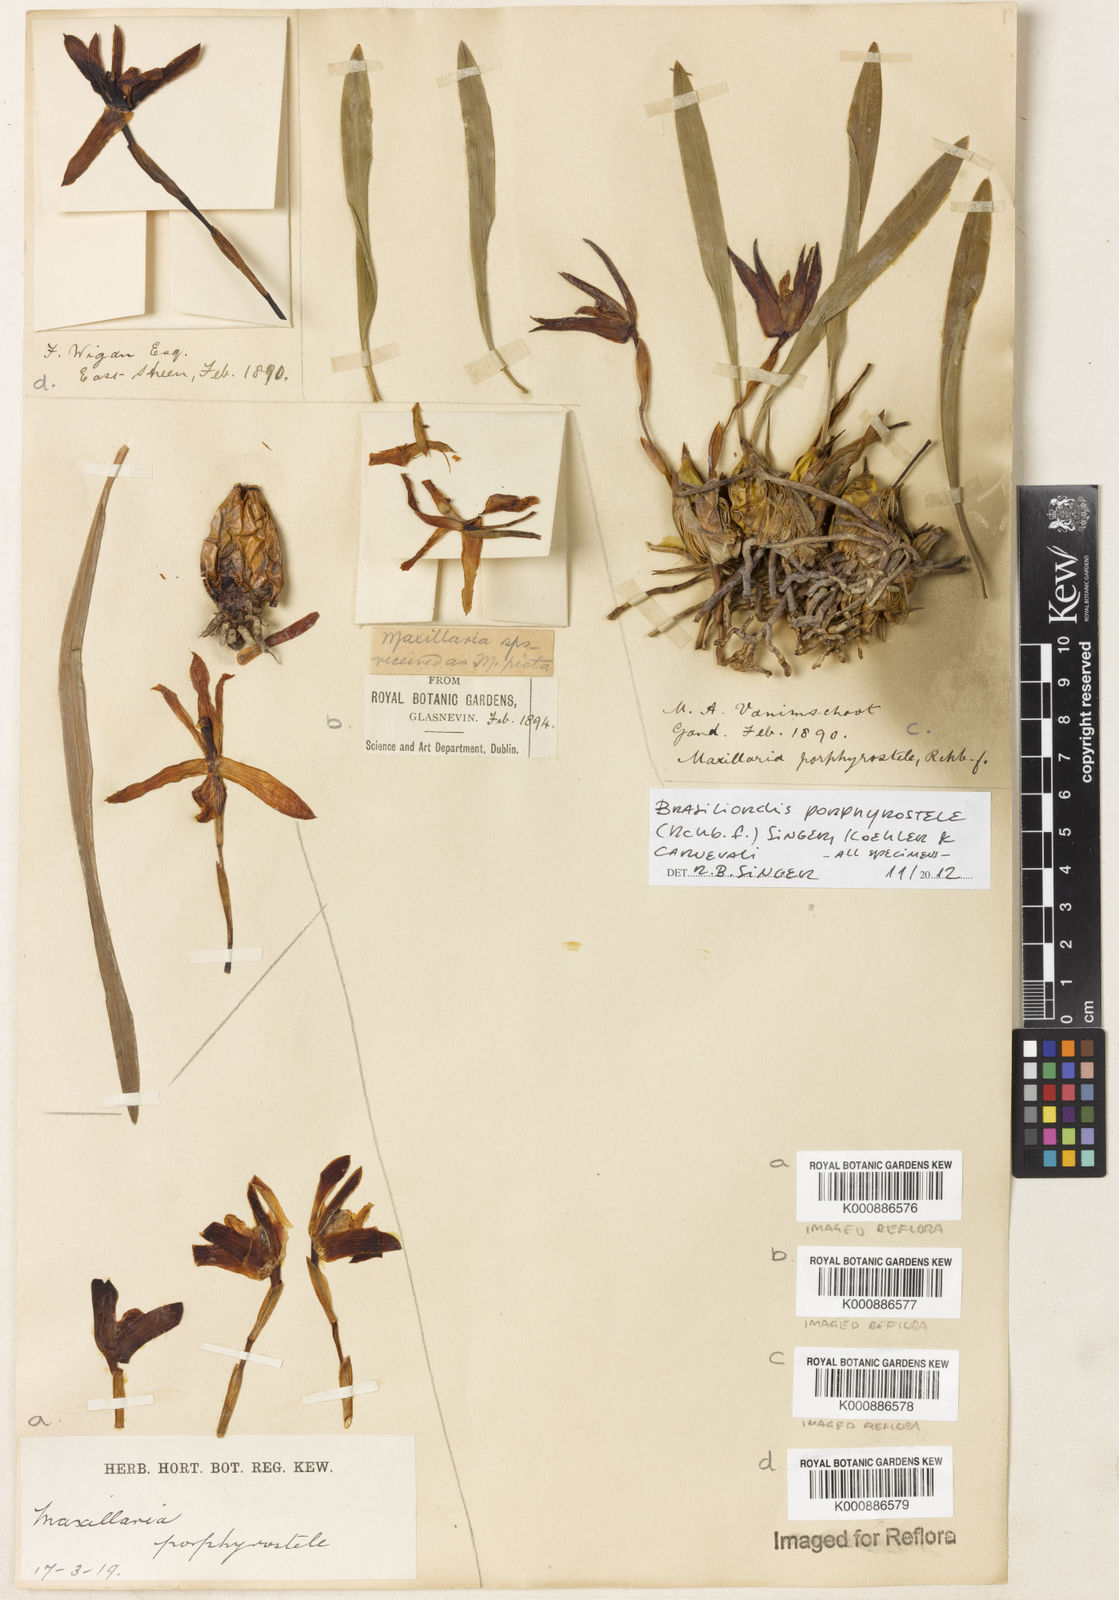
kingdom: Plantae
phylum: Tracheophyta
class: Liliopsida
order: Asparagales
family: Orchidaceae
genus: Maxillaria
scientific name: Maxillaria porphyrostele
